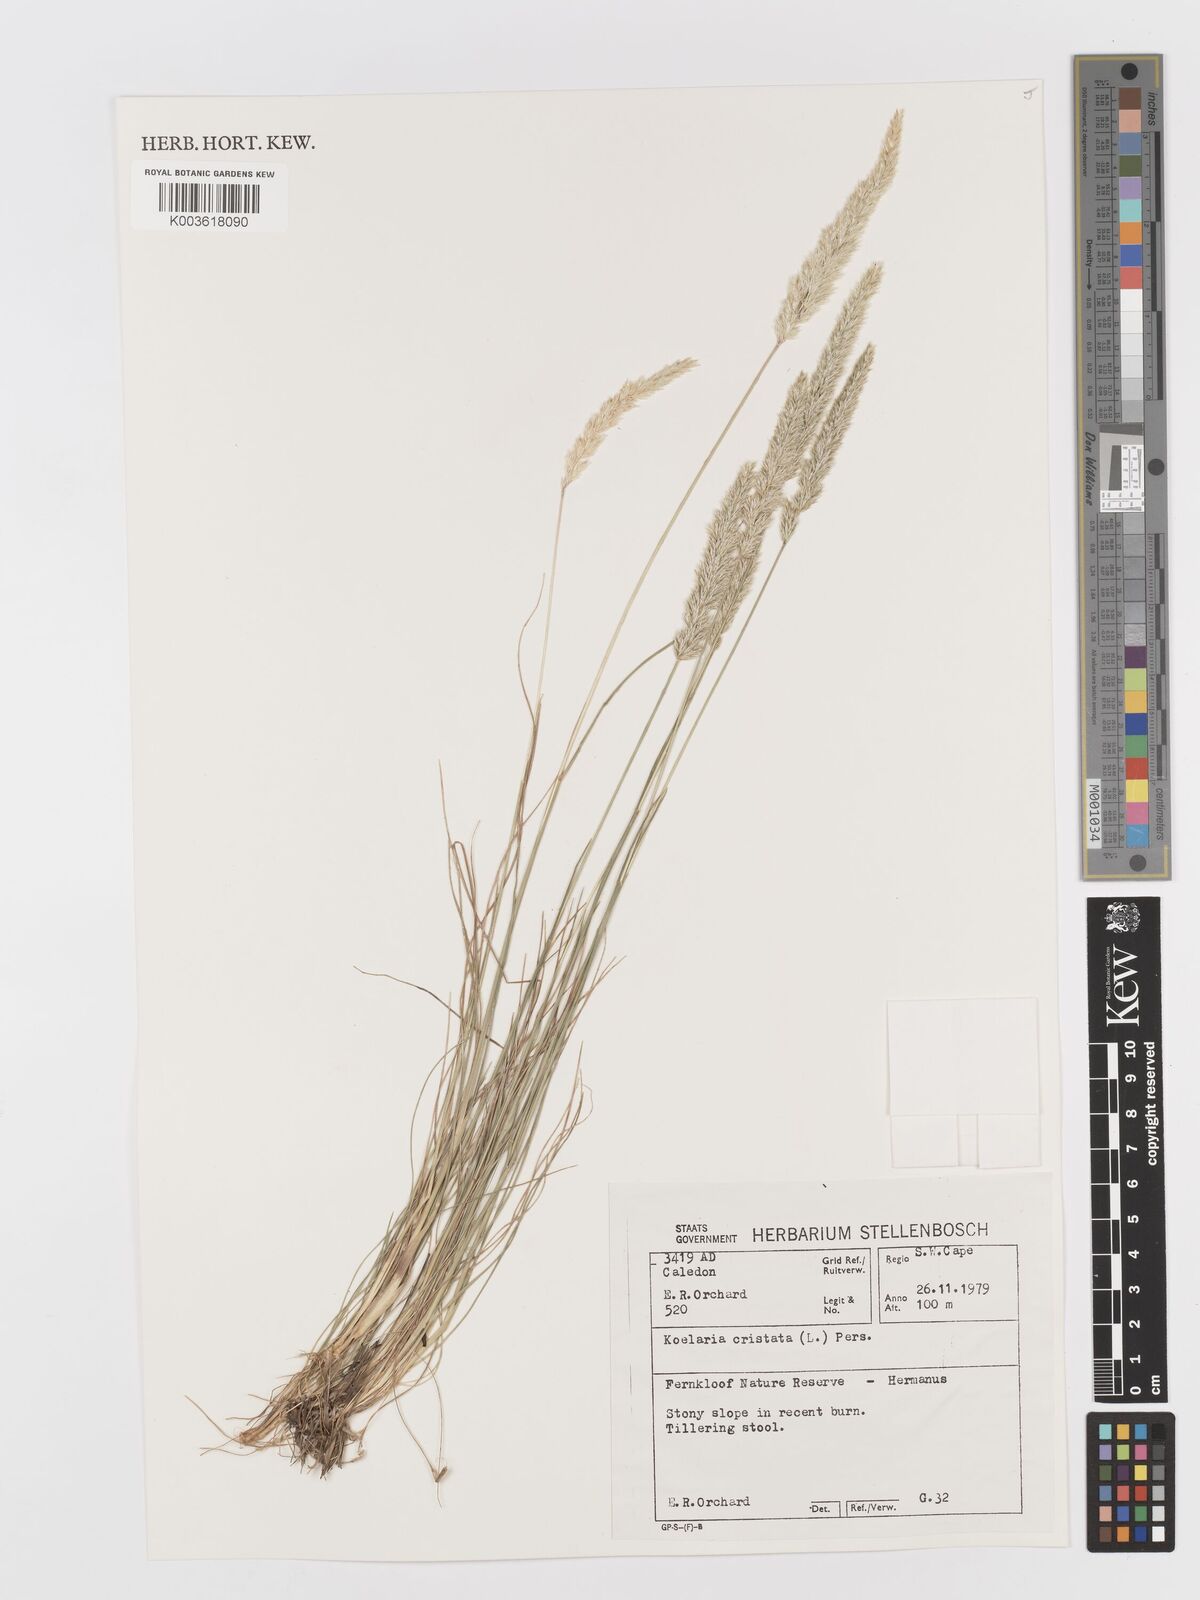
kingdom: Plantae
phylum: Tracheophyta
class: Liliopsida
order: Poales
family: Poaceae
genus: Koeleria
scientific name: Koeleria capensis
